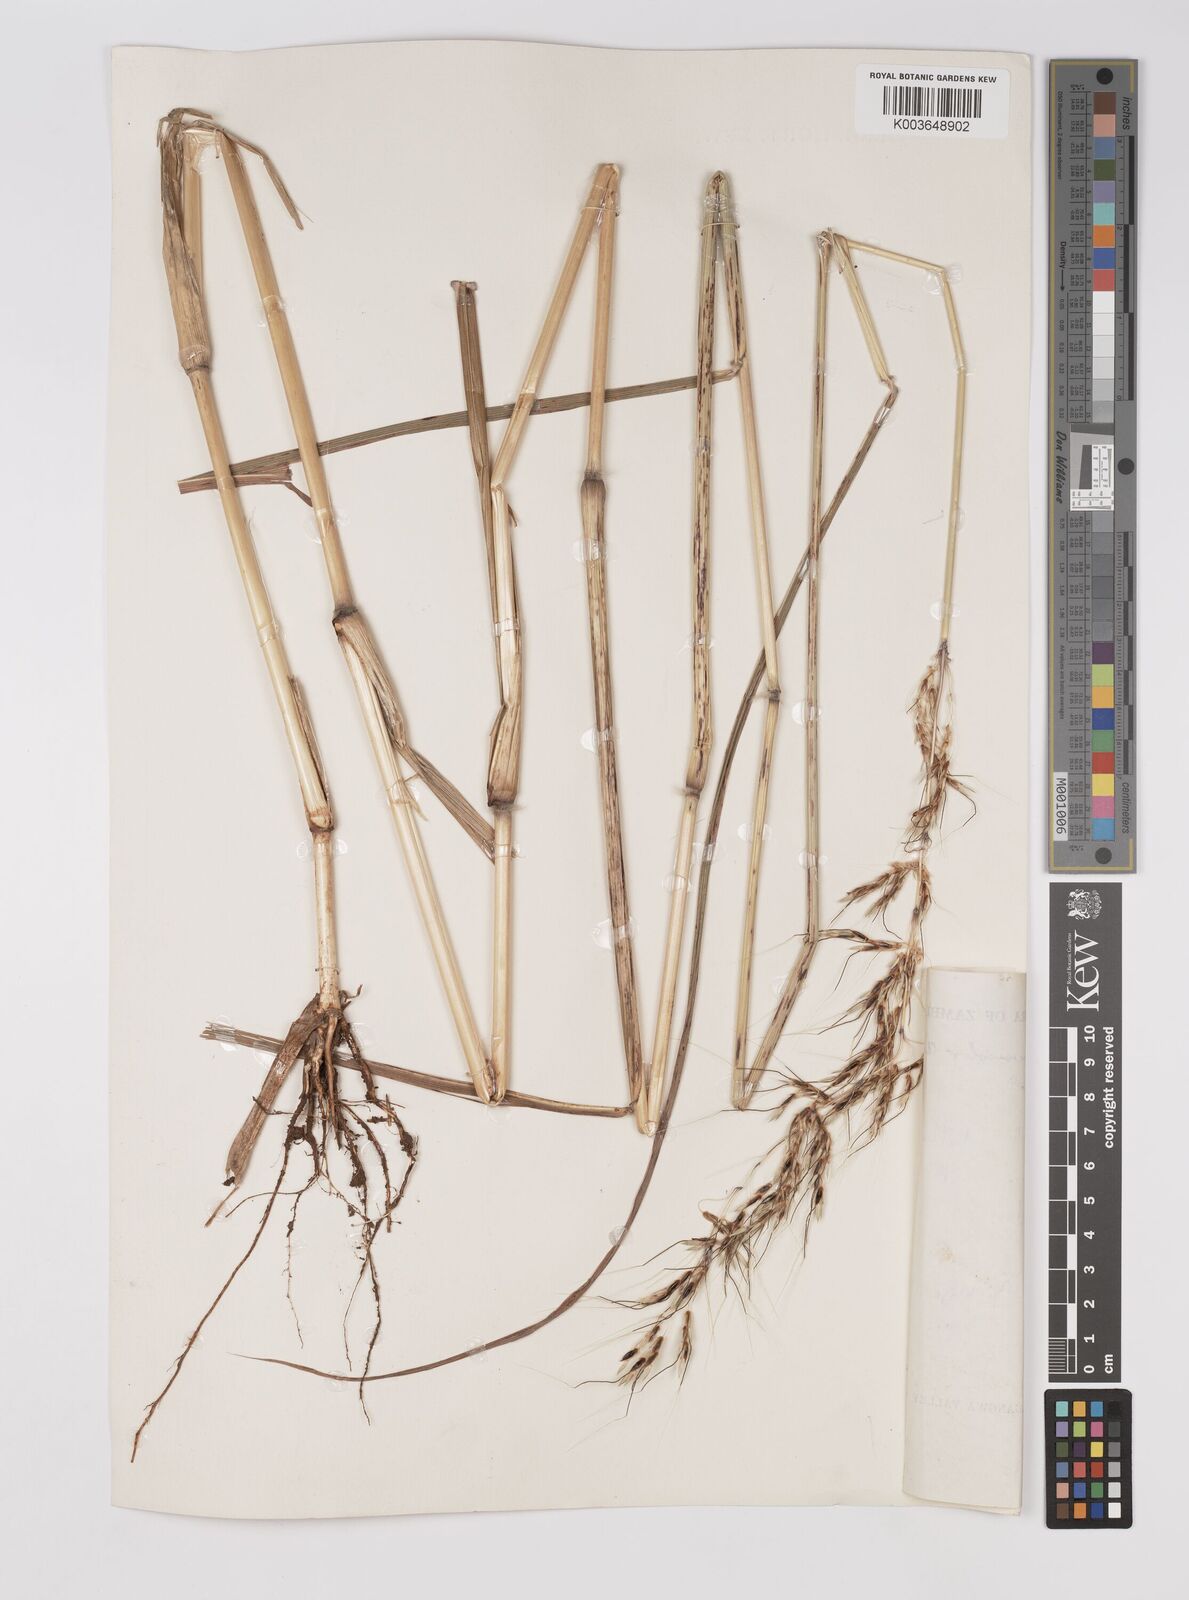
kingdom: Plantae
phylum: Tracheophyta
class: Liliopsida
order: Poales
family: Poaceae
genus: Sarga
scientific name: Sarga versicolor
